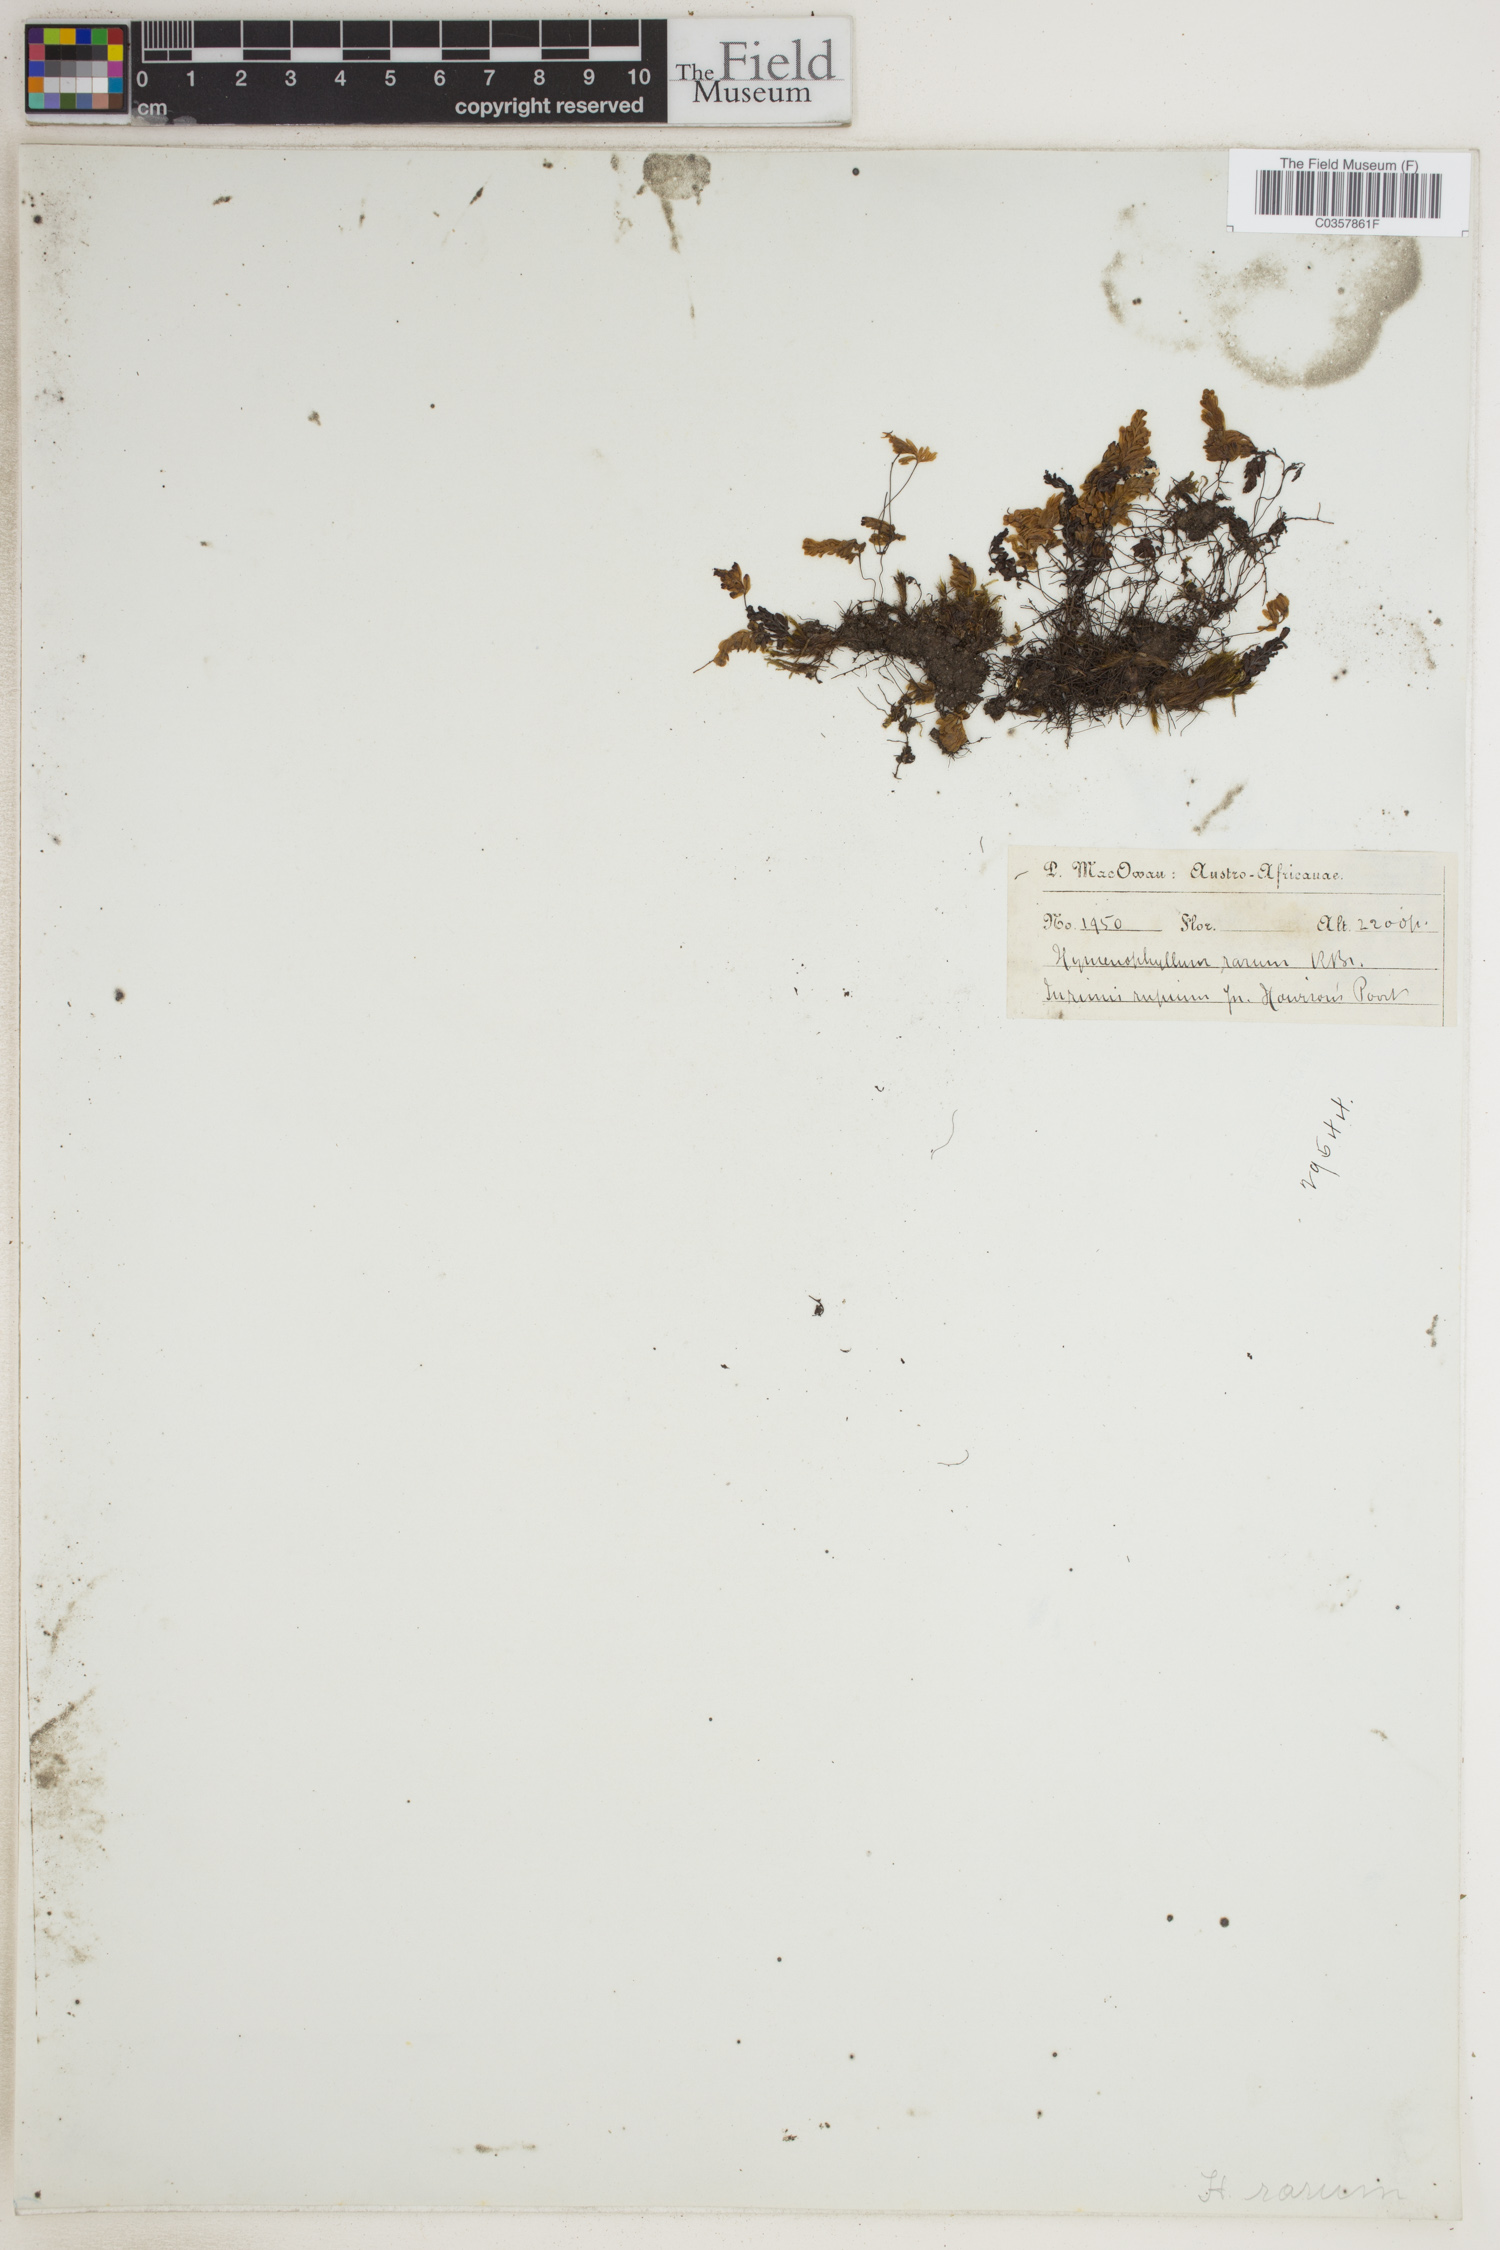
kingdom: Plantae
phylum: Tracheophyta
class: Polypodiopsida
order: Hymenophyllales
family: Hymenophyllaceae
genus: Hymenophyllum
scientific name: Hymenophyllum rarum
